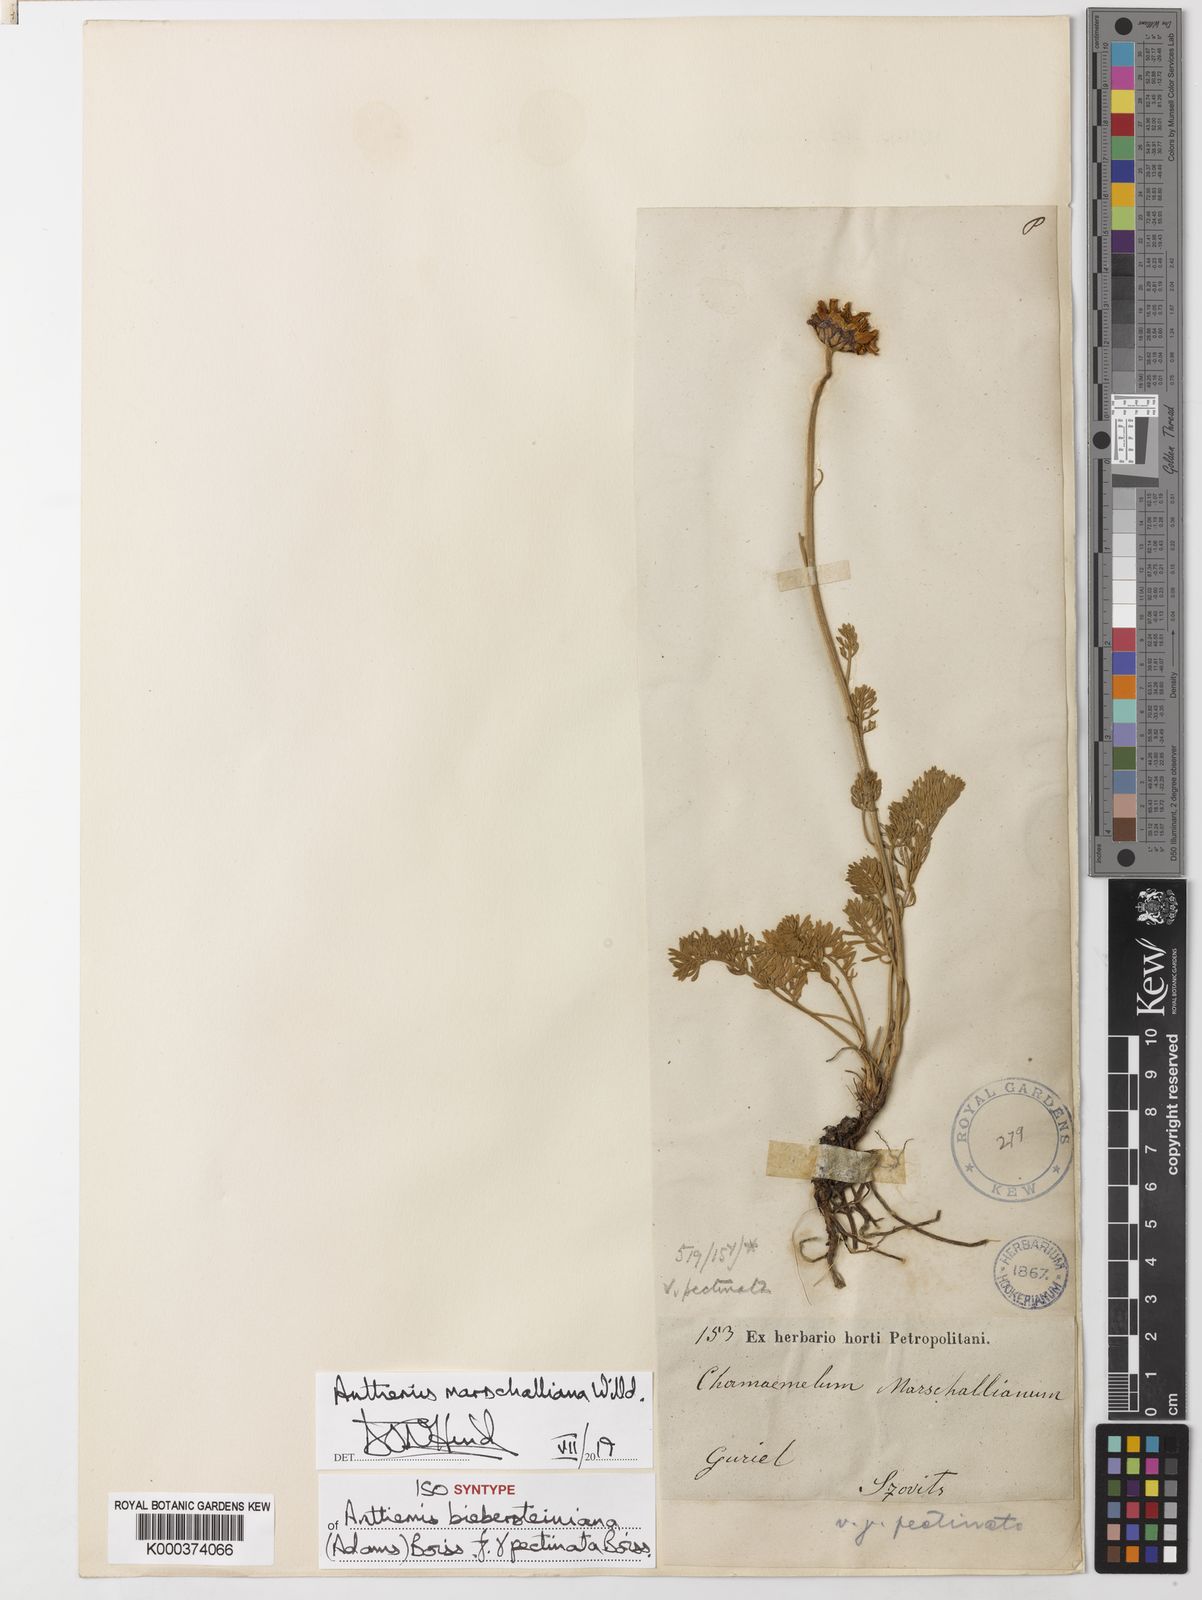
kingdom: Plantae
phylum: Tracheophyta
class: Magnoliopsida
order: Asterales
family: Asteraceae
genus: Archanthemis
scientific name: Archanthemis marschalliana
